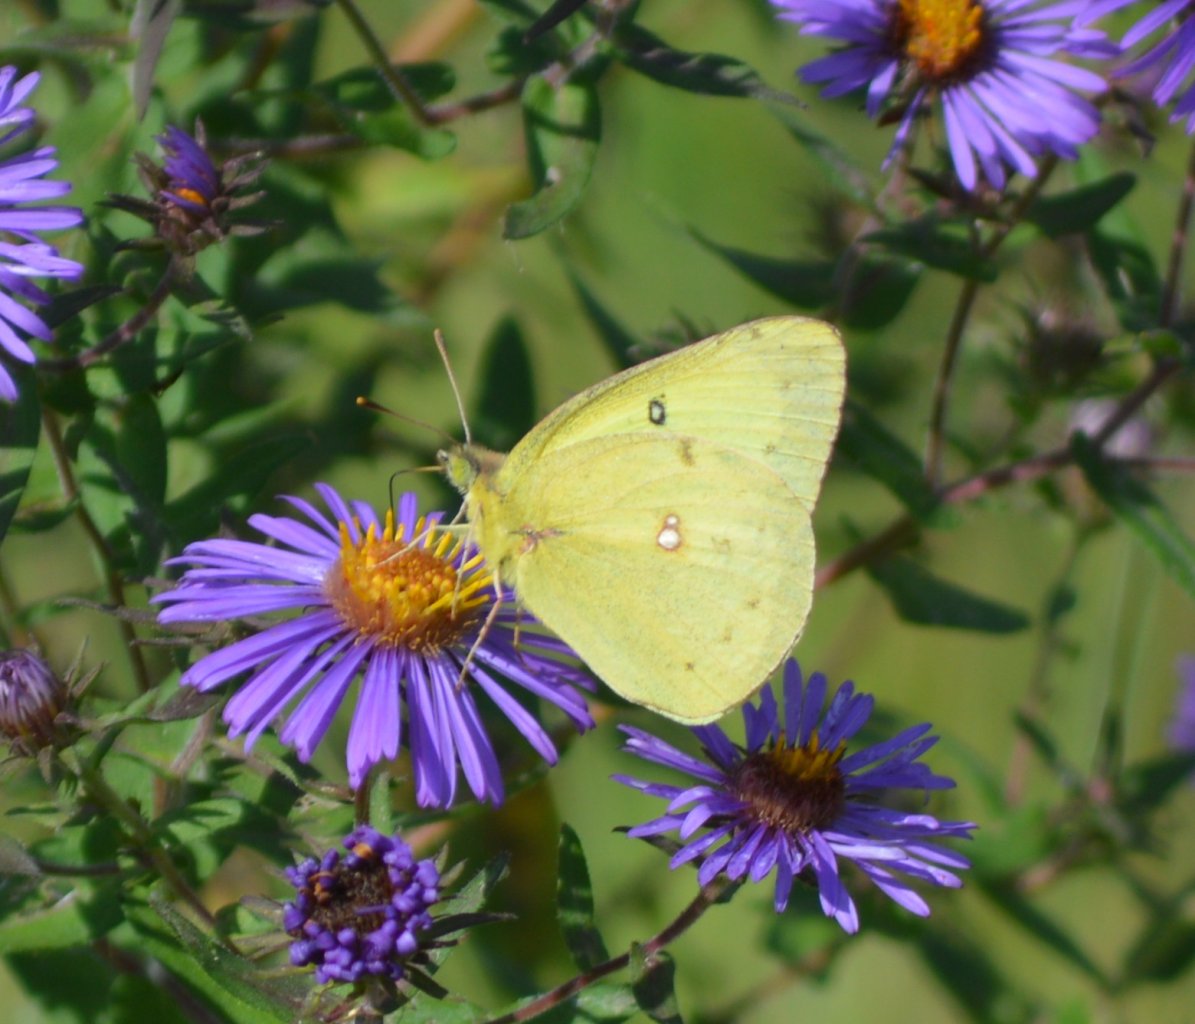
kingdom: Animalia
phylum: Arthropoda
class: Insecta
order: Lepidoptera
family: Pieridae
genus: Colias
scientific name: Colias philodice
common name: Clouded Sulphur
